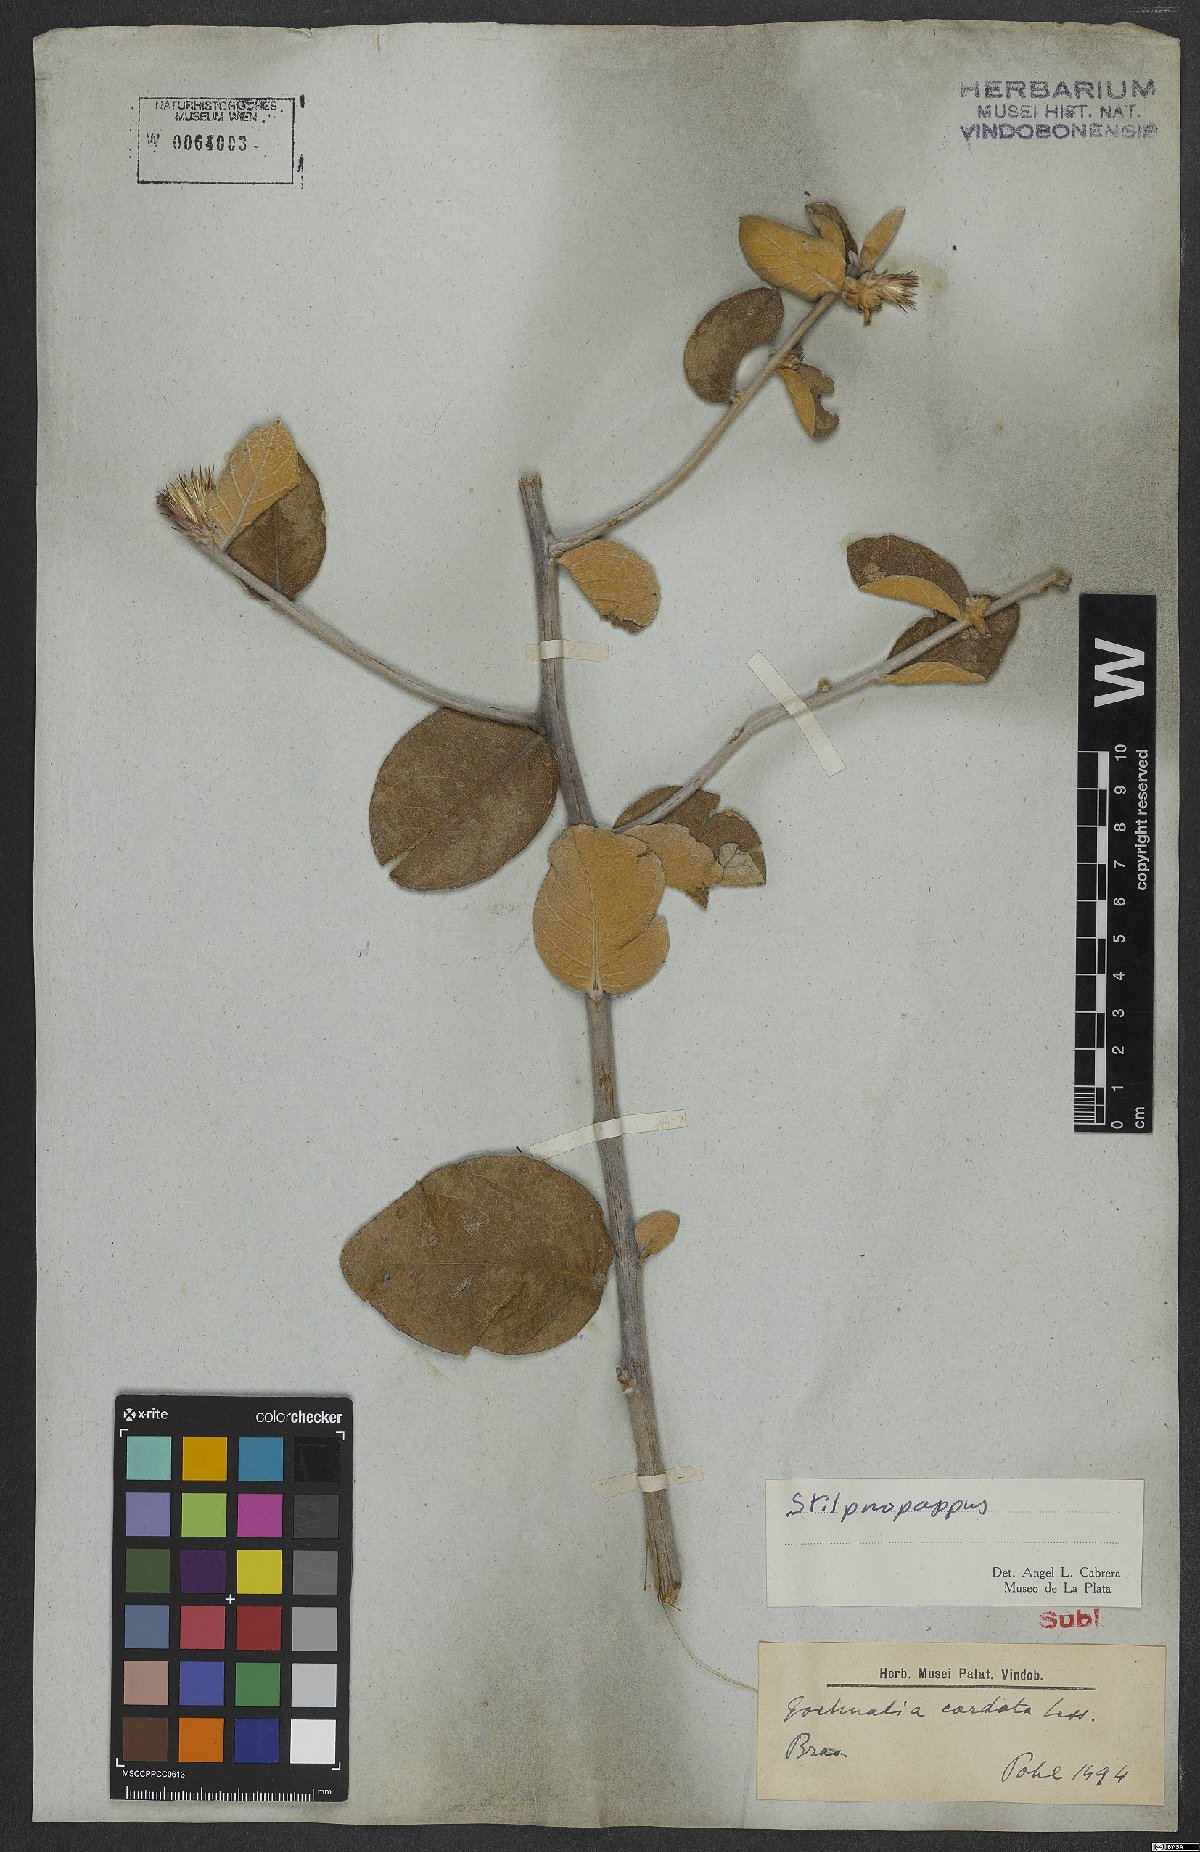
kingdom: Plantae
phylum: Tracheophyta
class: Magnoliopsida
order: Asterales
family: Asteraceae
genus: Stilpnopappus
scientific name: Stilpnopappus speciosus
